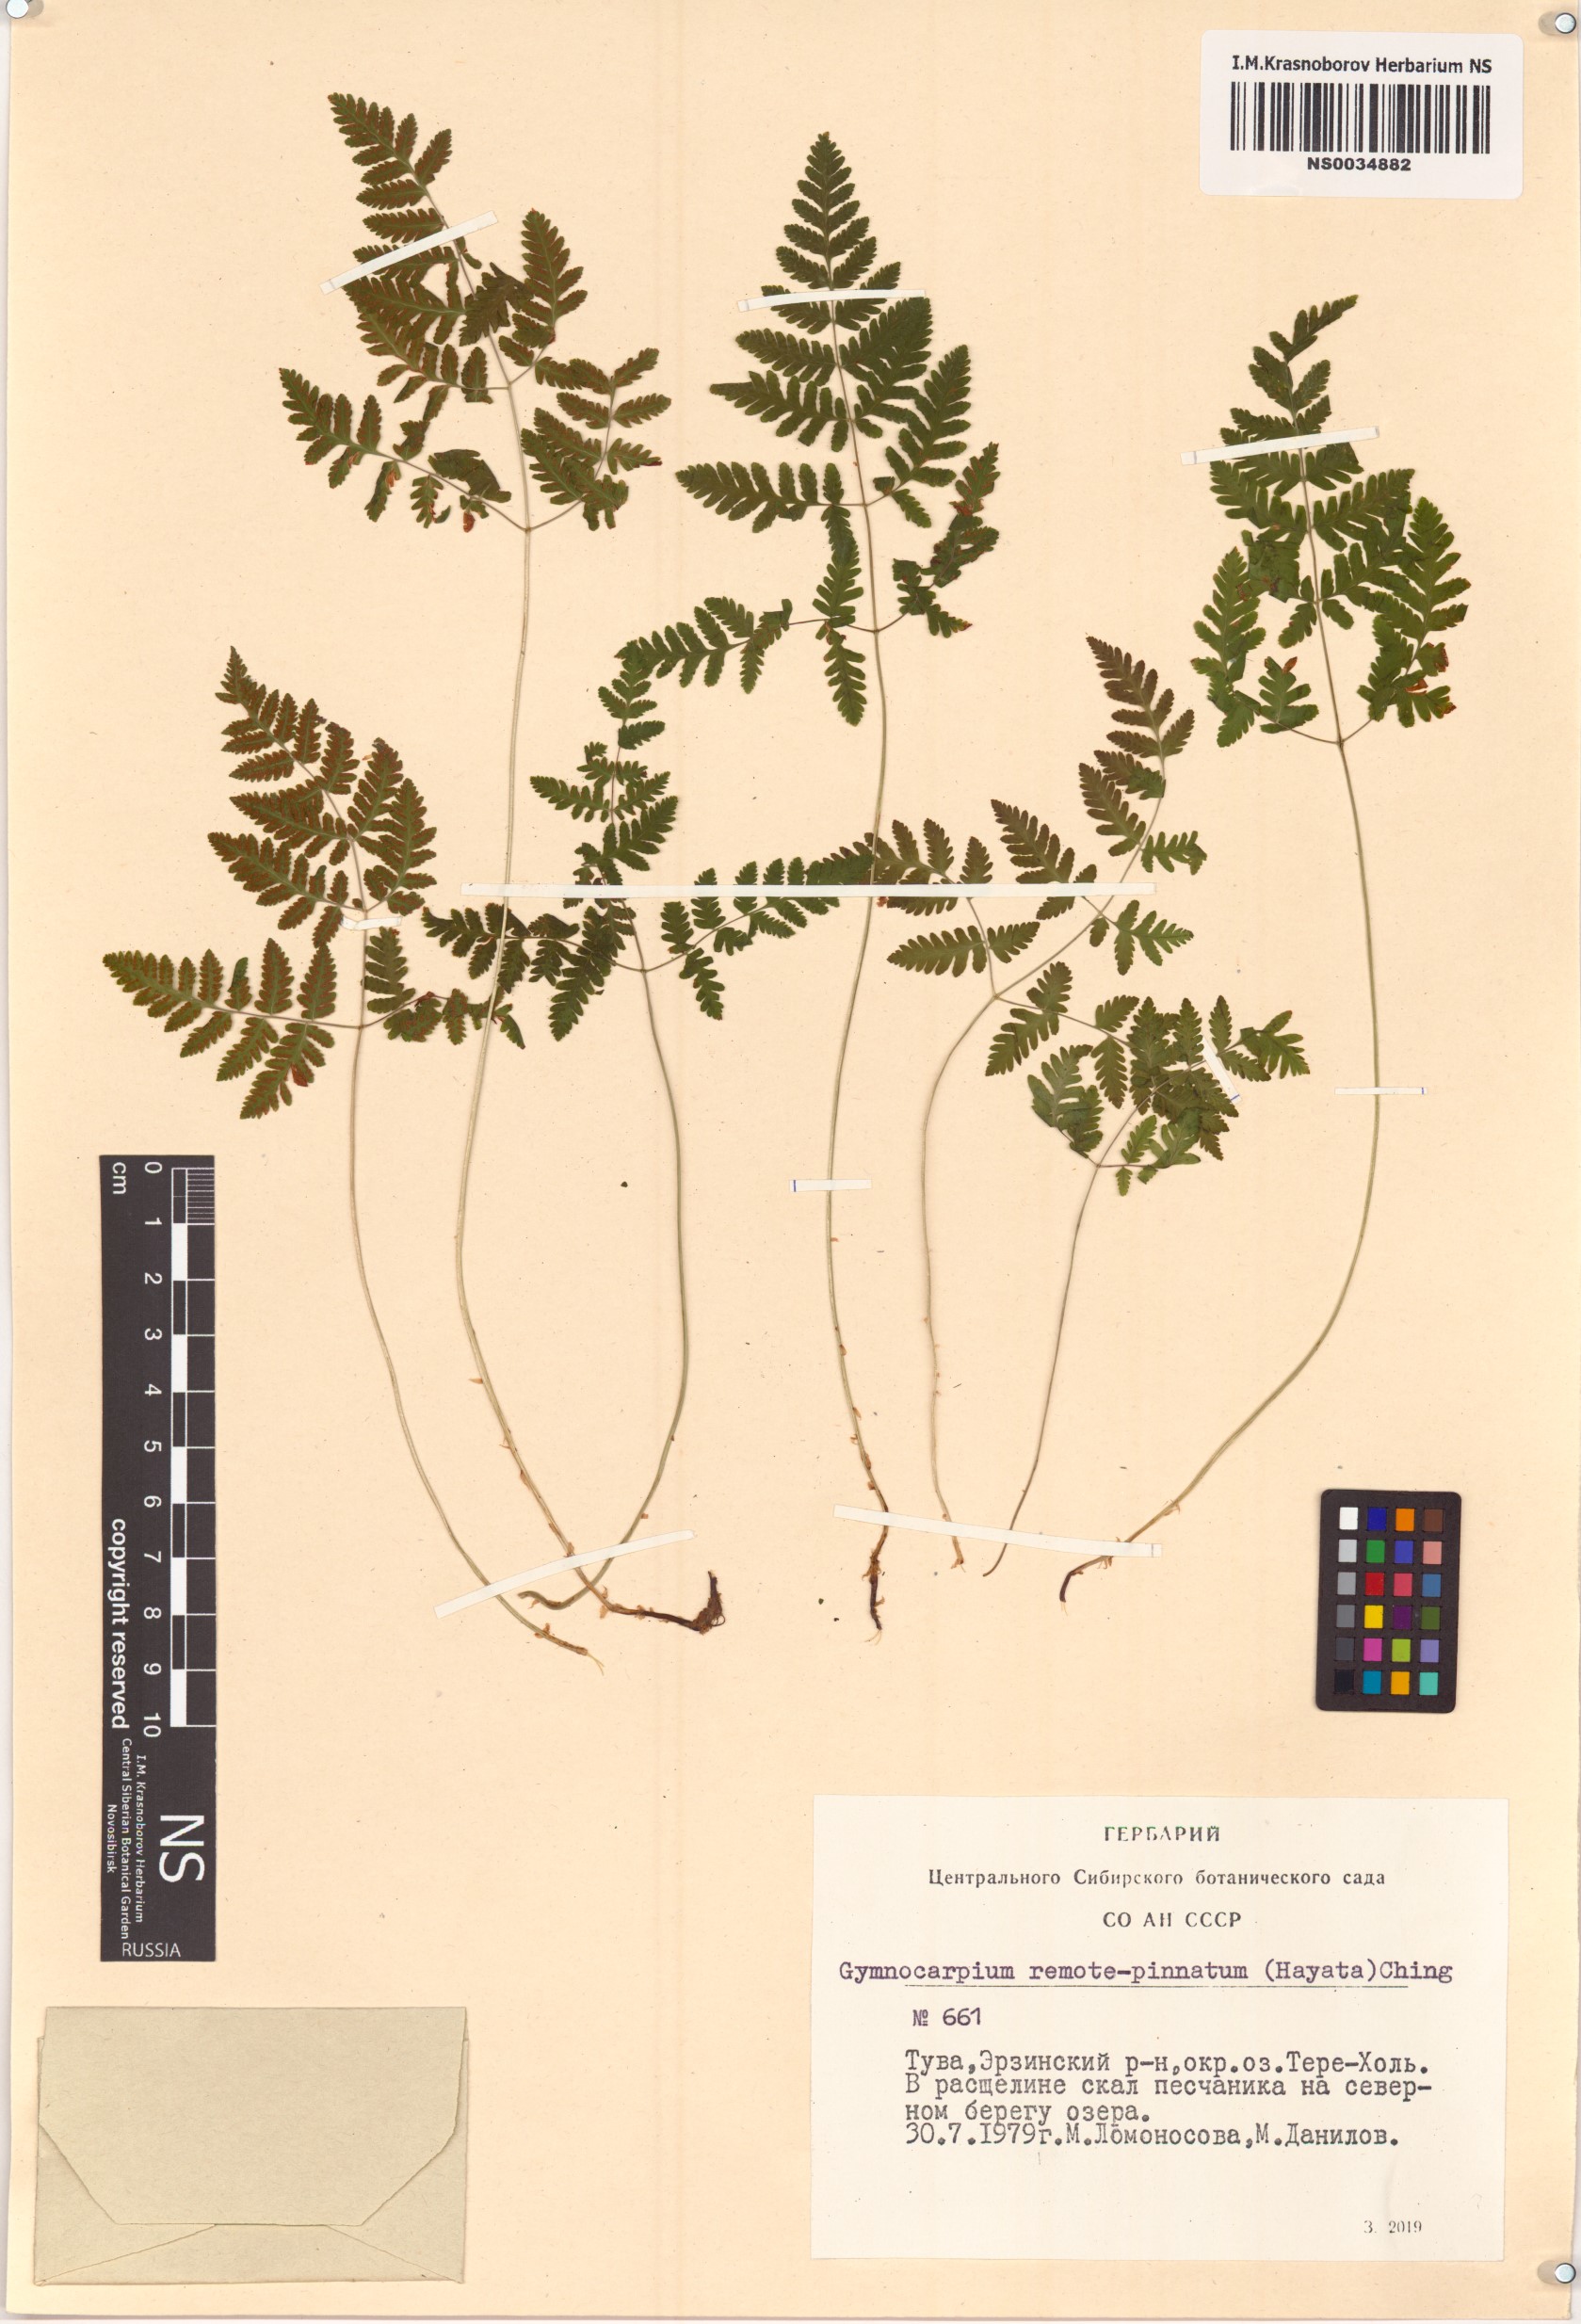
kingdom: Plantae
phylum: Tracheophyta
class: Polypodiopsida
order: Polypodiales
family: Cystopteridaceae
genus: Gymnocarpium
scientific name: Gymnocarpium remotepinnatum
